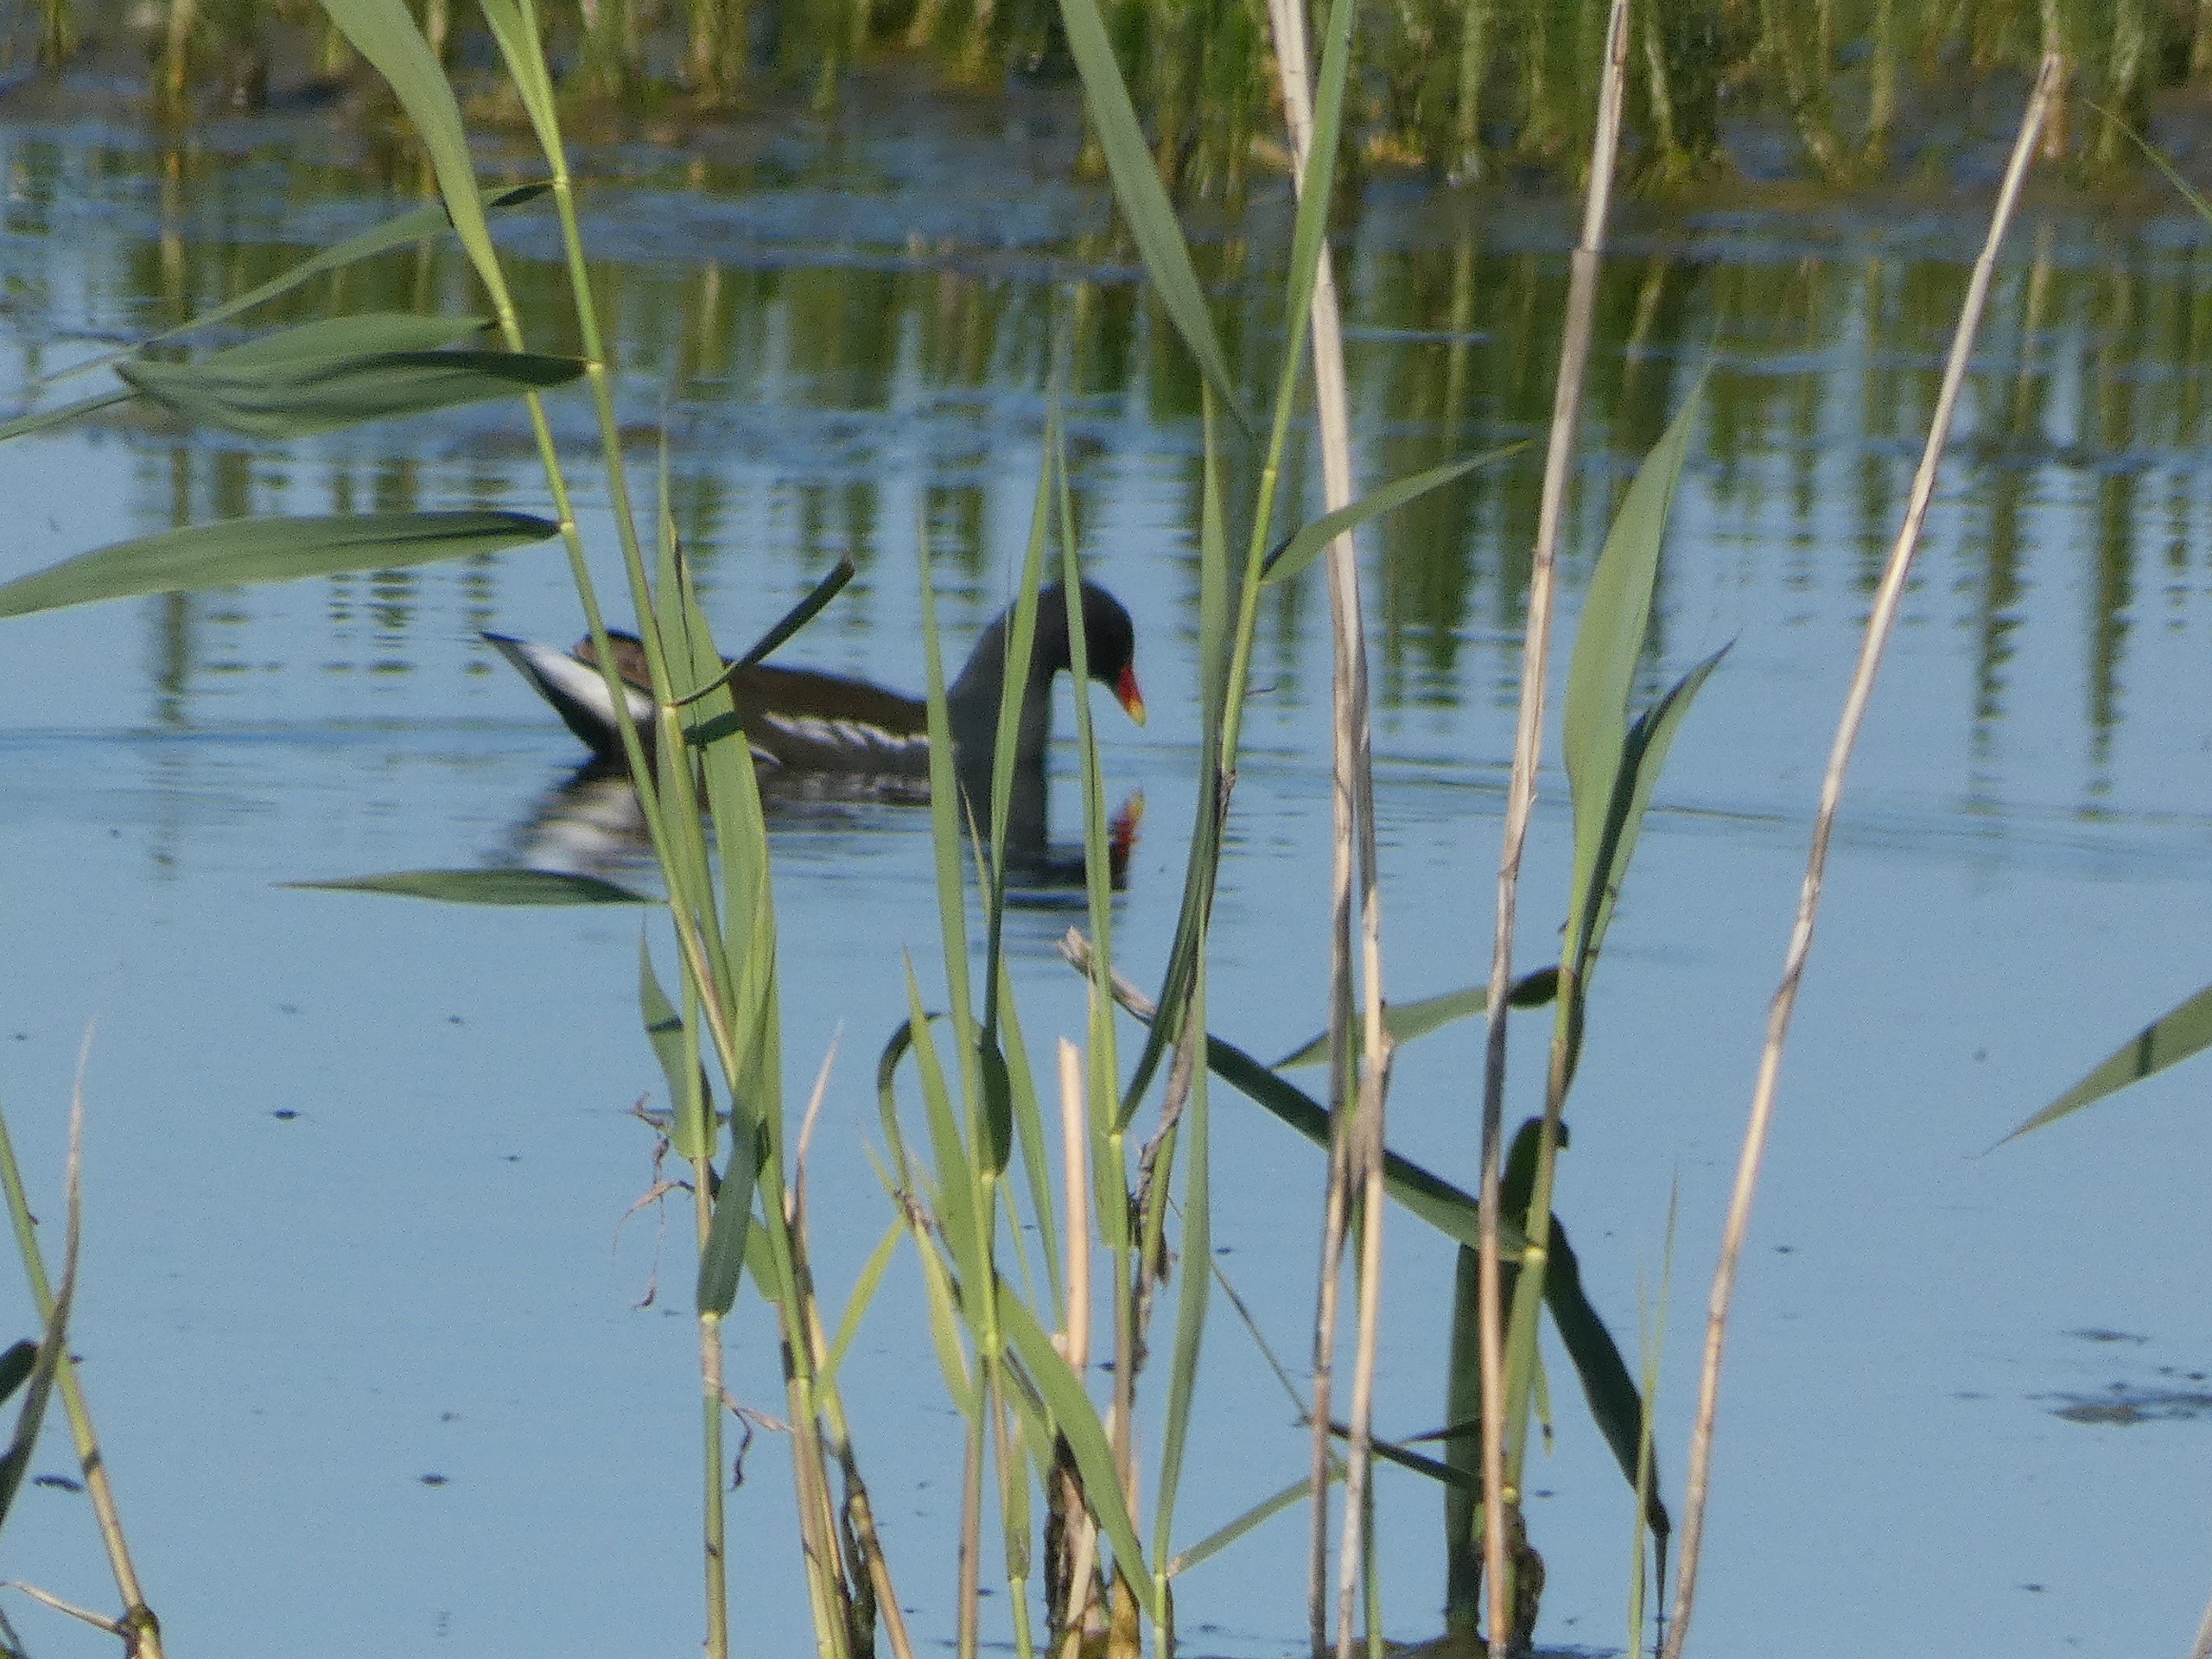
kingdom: Animalia
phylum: Chordata
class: Aves
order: Gruiformes
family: Rallidae
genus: Gallinula
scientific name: Gallinula chloropus
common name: Grønbenet rørhøne
